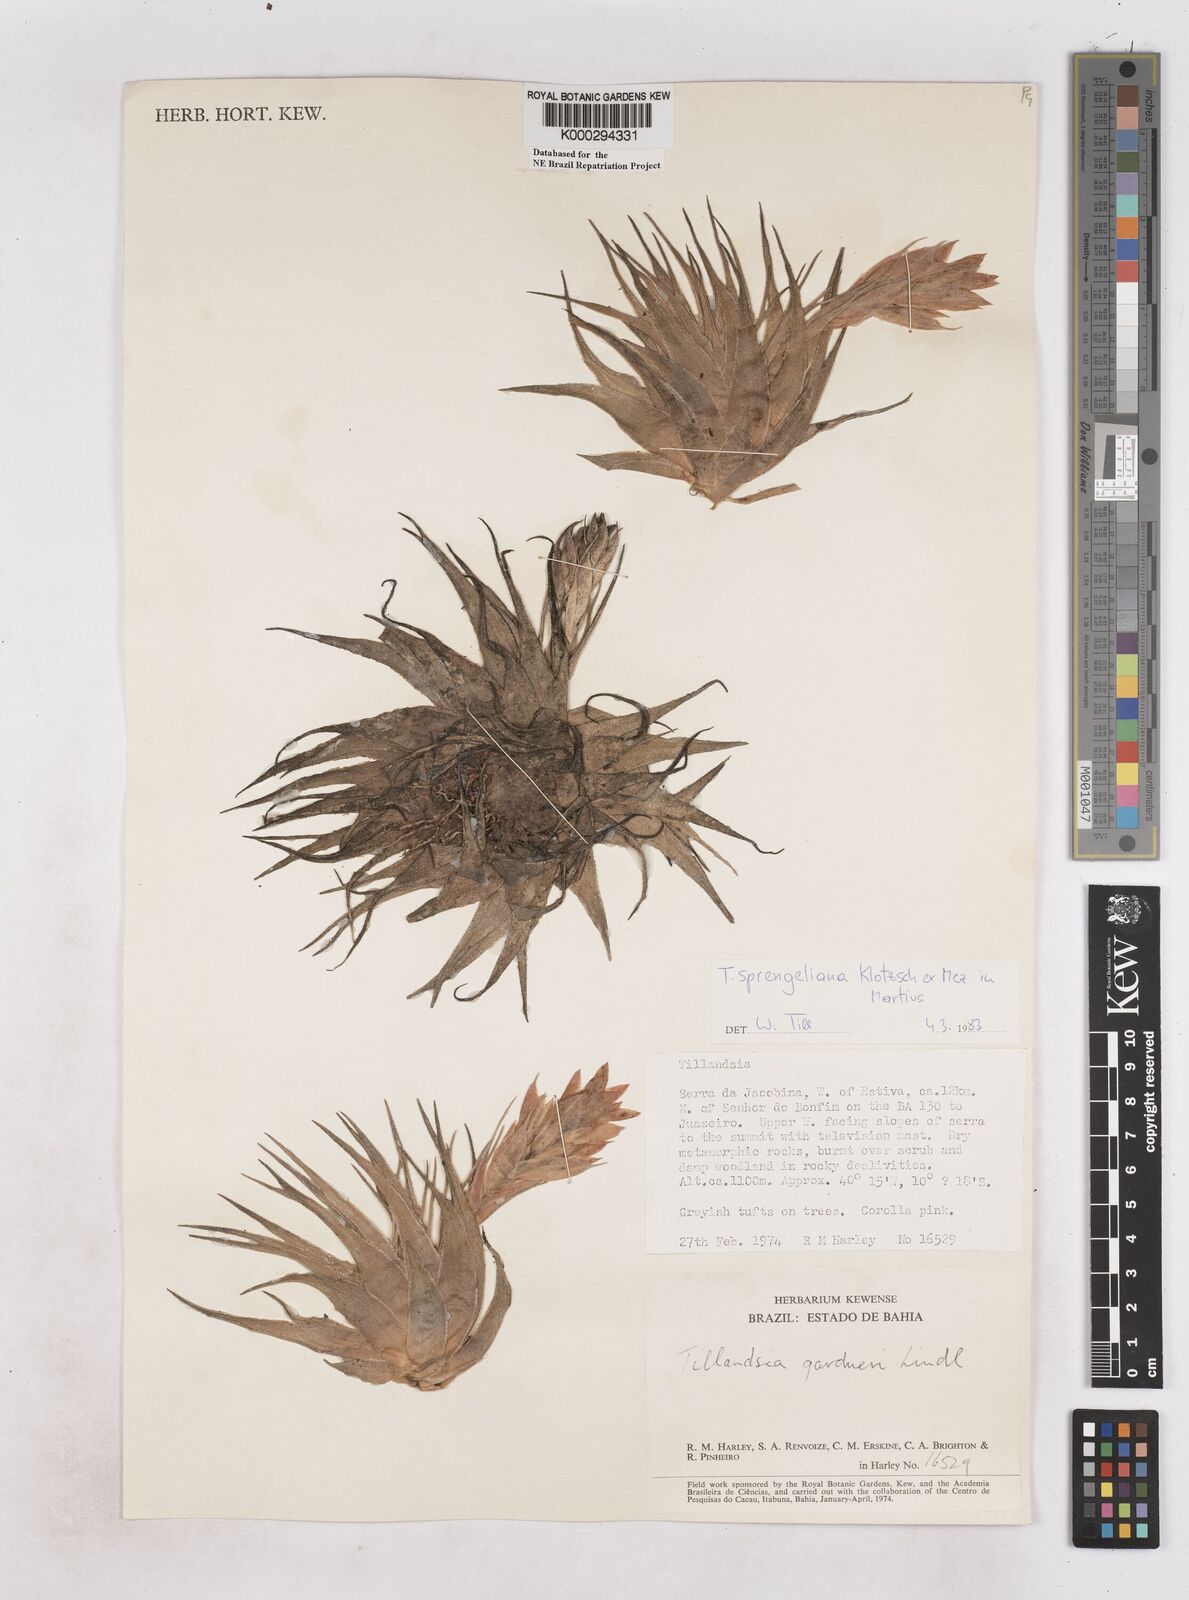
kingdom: Plantae
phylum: Tracheophyta
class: Liliopsida
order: Poales
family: Bromeliaceae
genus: Tillandsia
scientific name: Tillandsia sprengeliana
